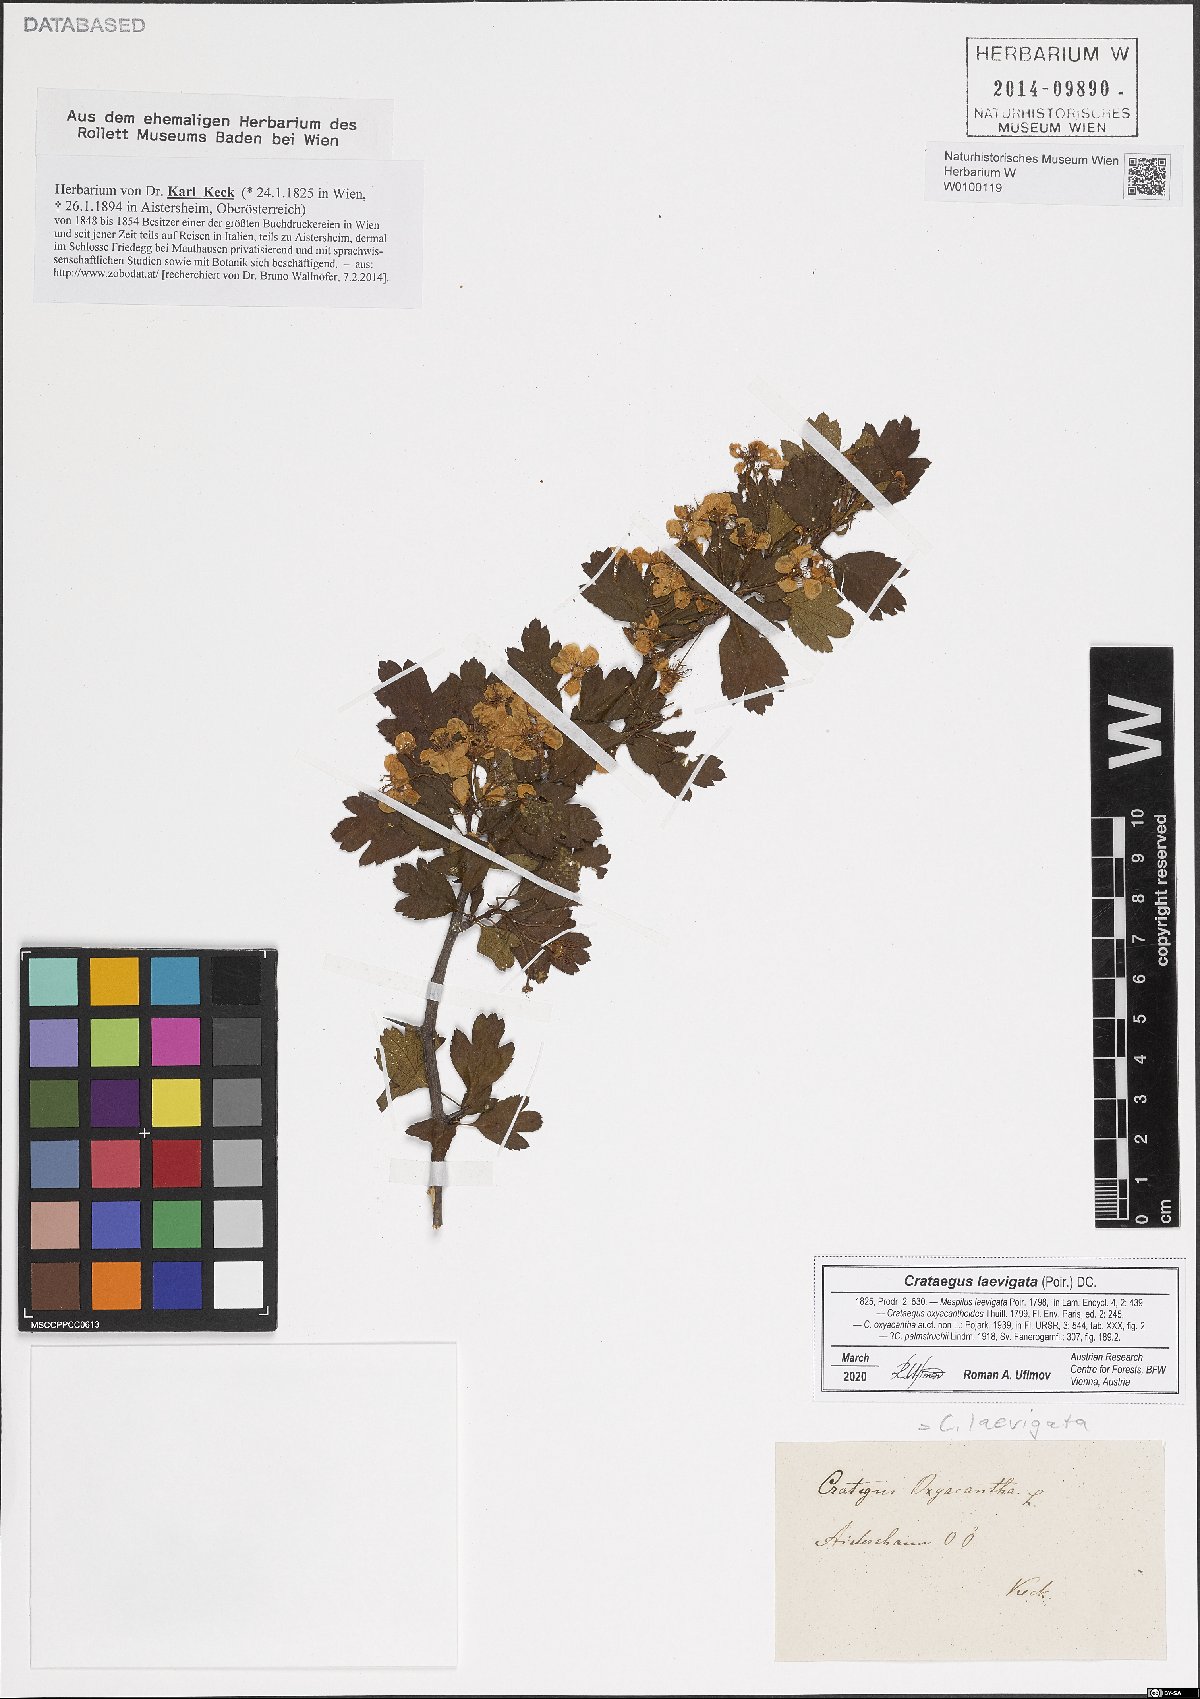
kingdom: Plantae
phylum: Tracheophyta
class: Magnoliopsida
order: Rosales
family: Rosaceae
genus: Crataegus
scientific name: Crataegus laevigata
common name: Midland hawthorn
